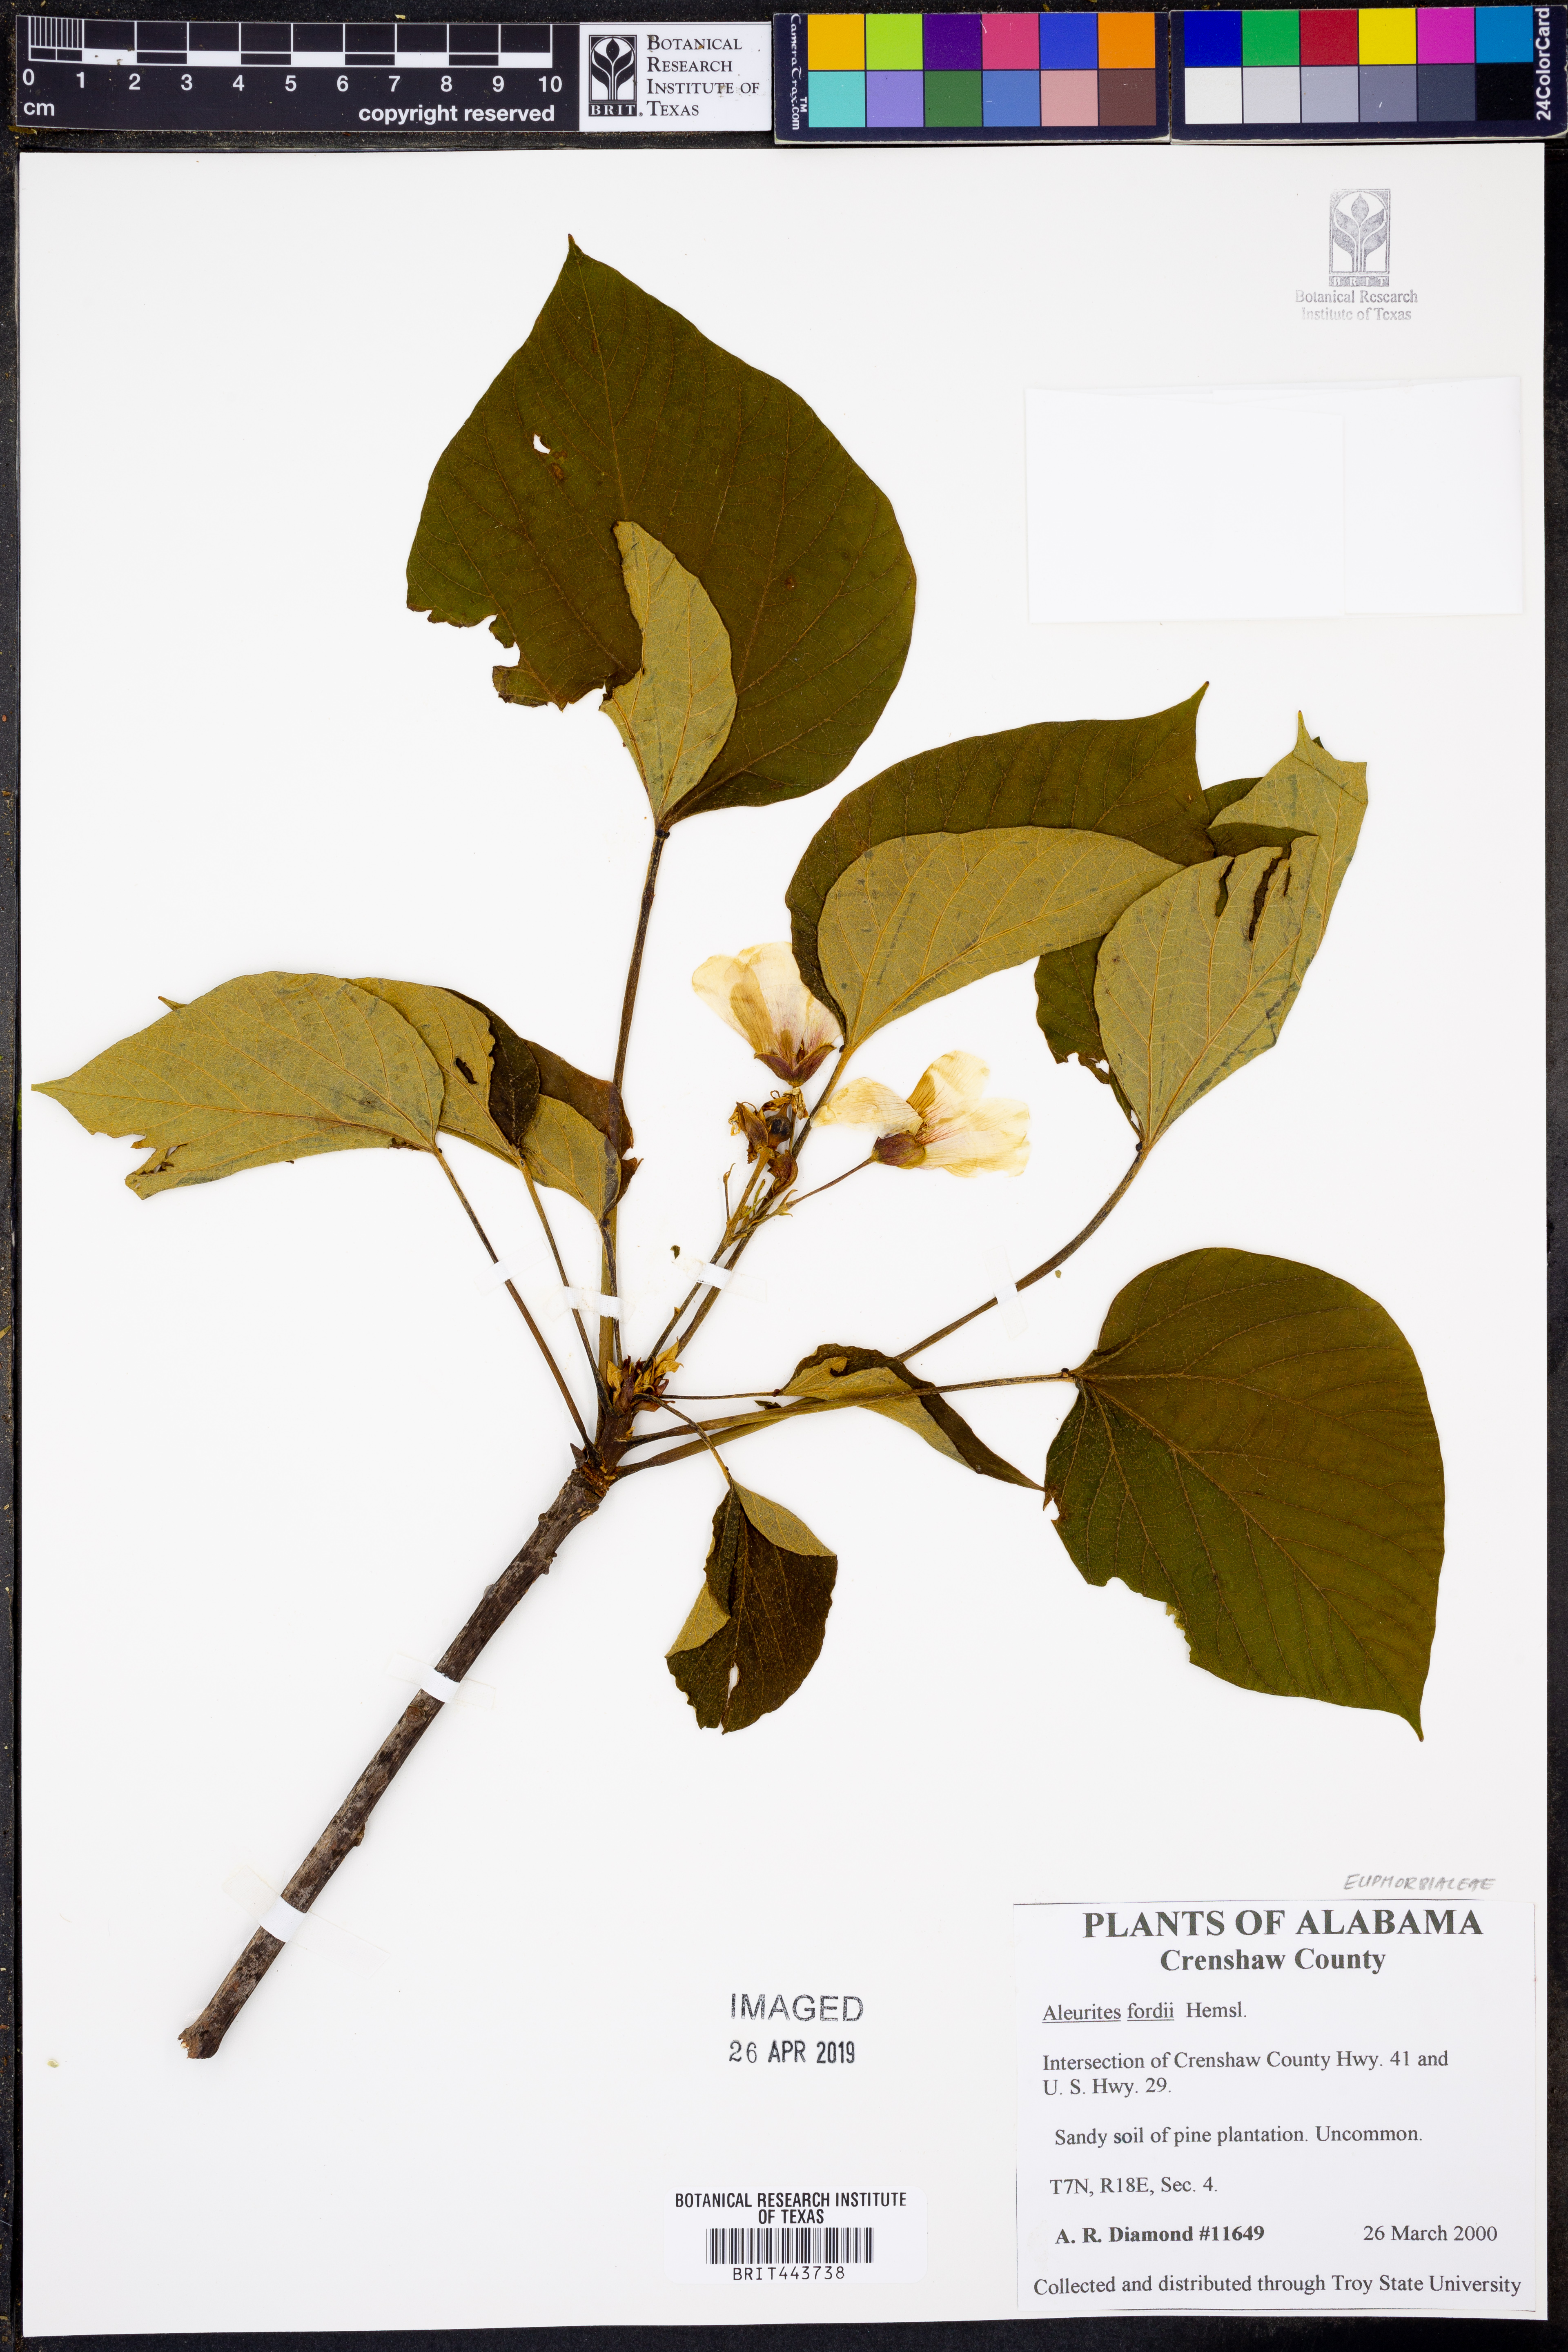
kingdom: Plantae
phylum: Tracheophyta
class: Magnoliopsida
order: Malpighiales
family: Euphorbiaceae
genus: Vernicia
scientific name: Vernicia fordii
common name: Tungoil tree
